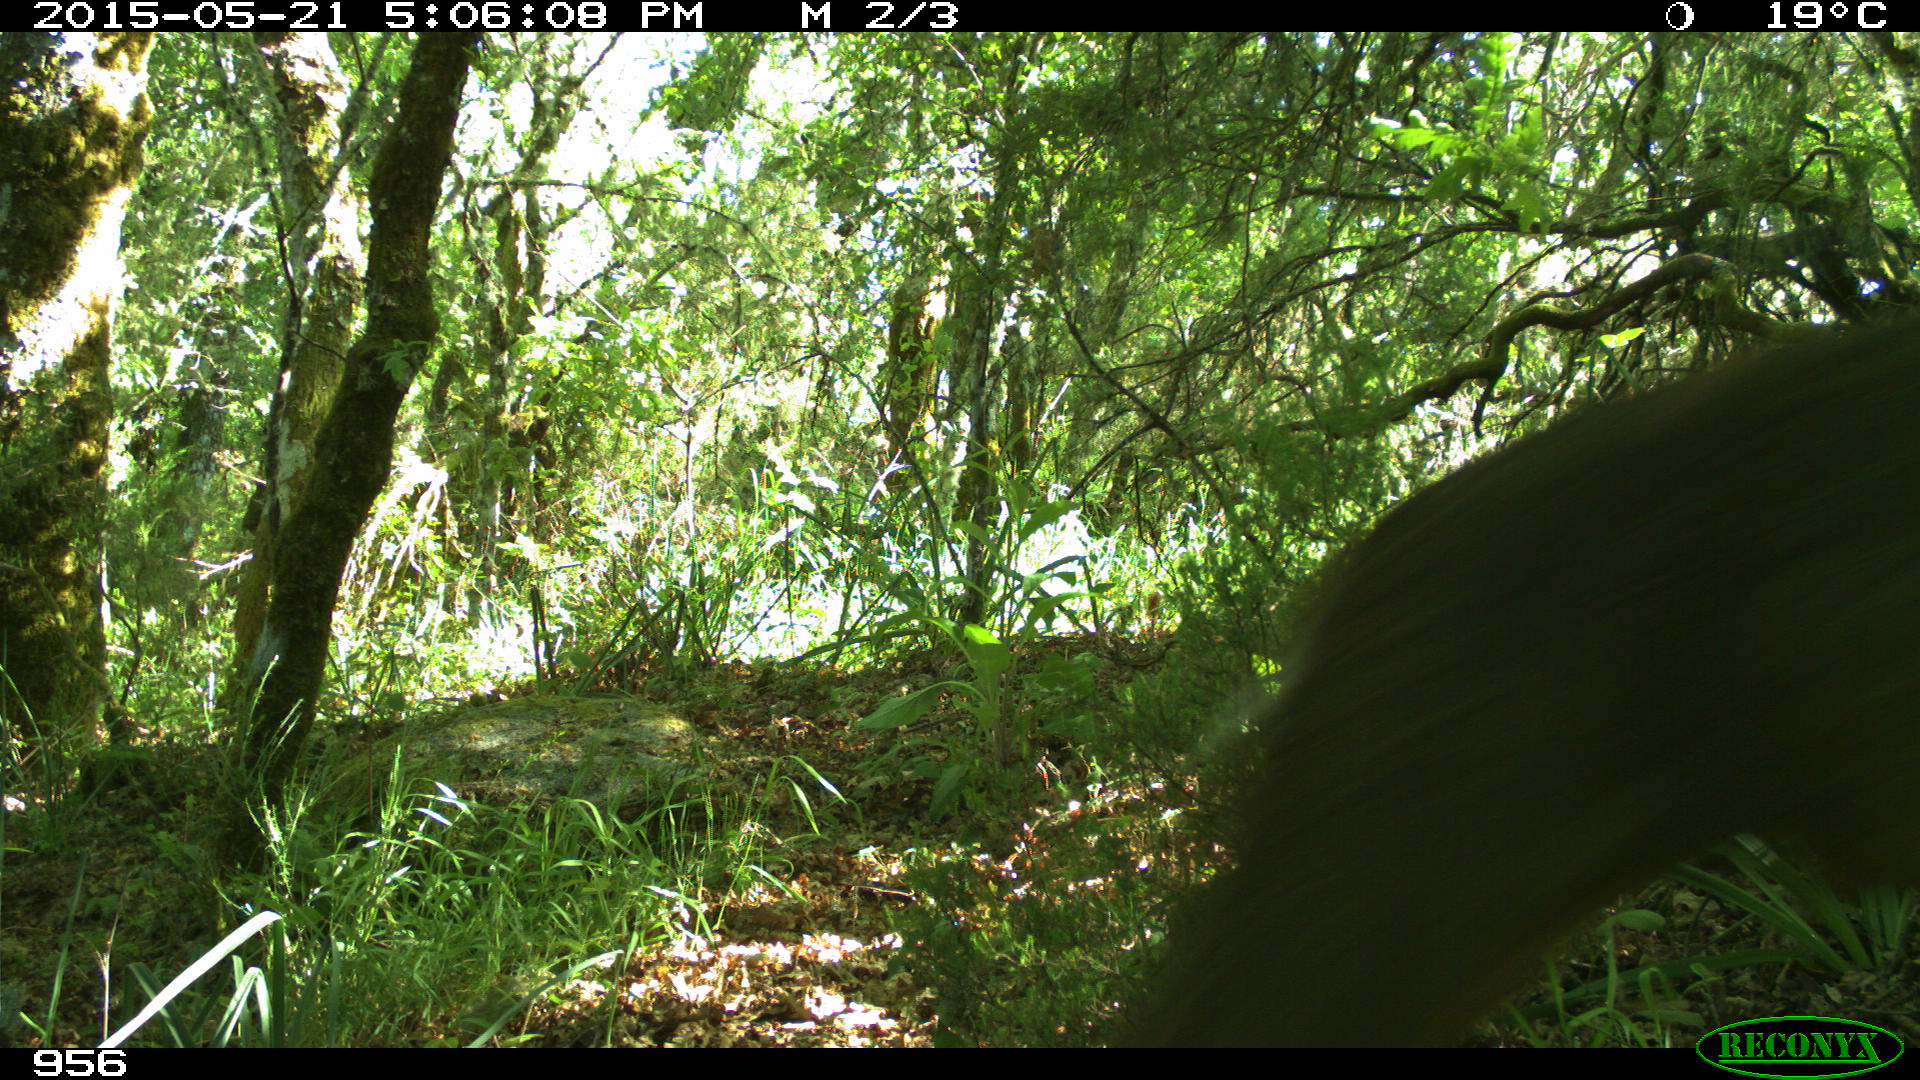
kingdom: Animalia
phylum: Chordata
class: Mammalia
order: Artiodactyla
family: Cervidae
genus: Capreolus
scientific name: Capreolus capreolus
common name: Western roe deer
